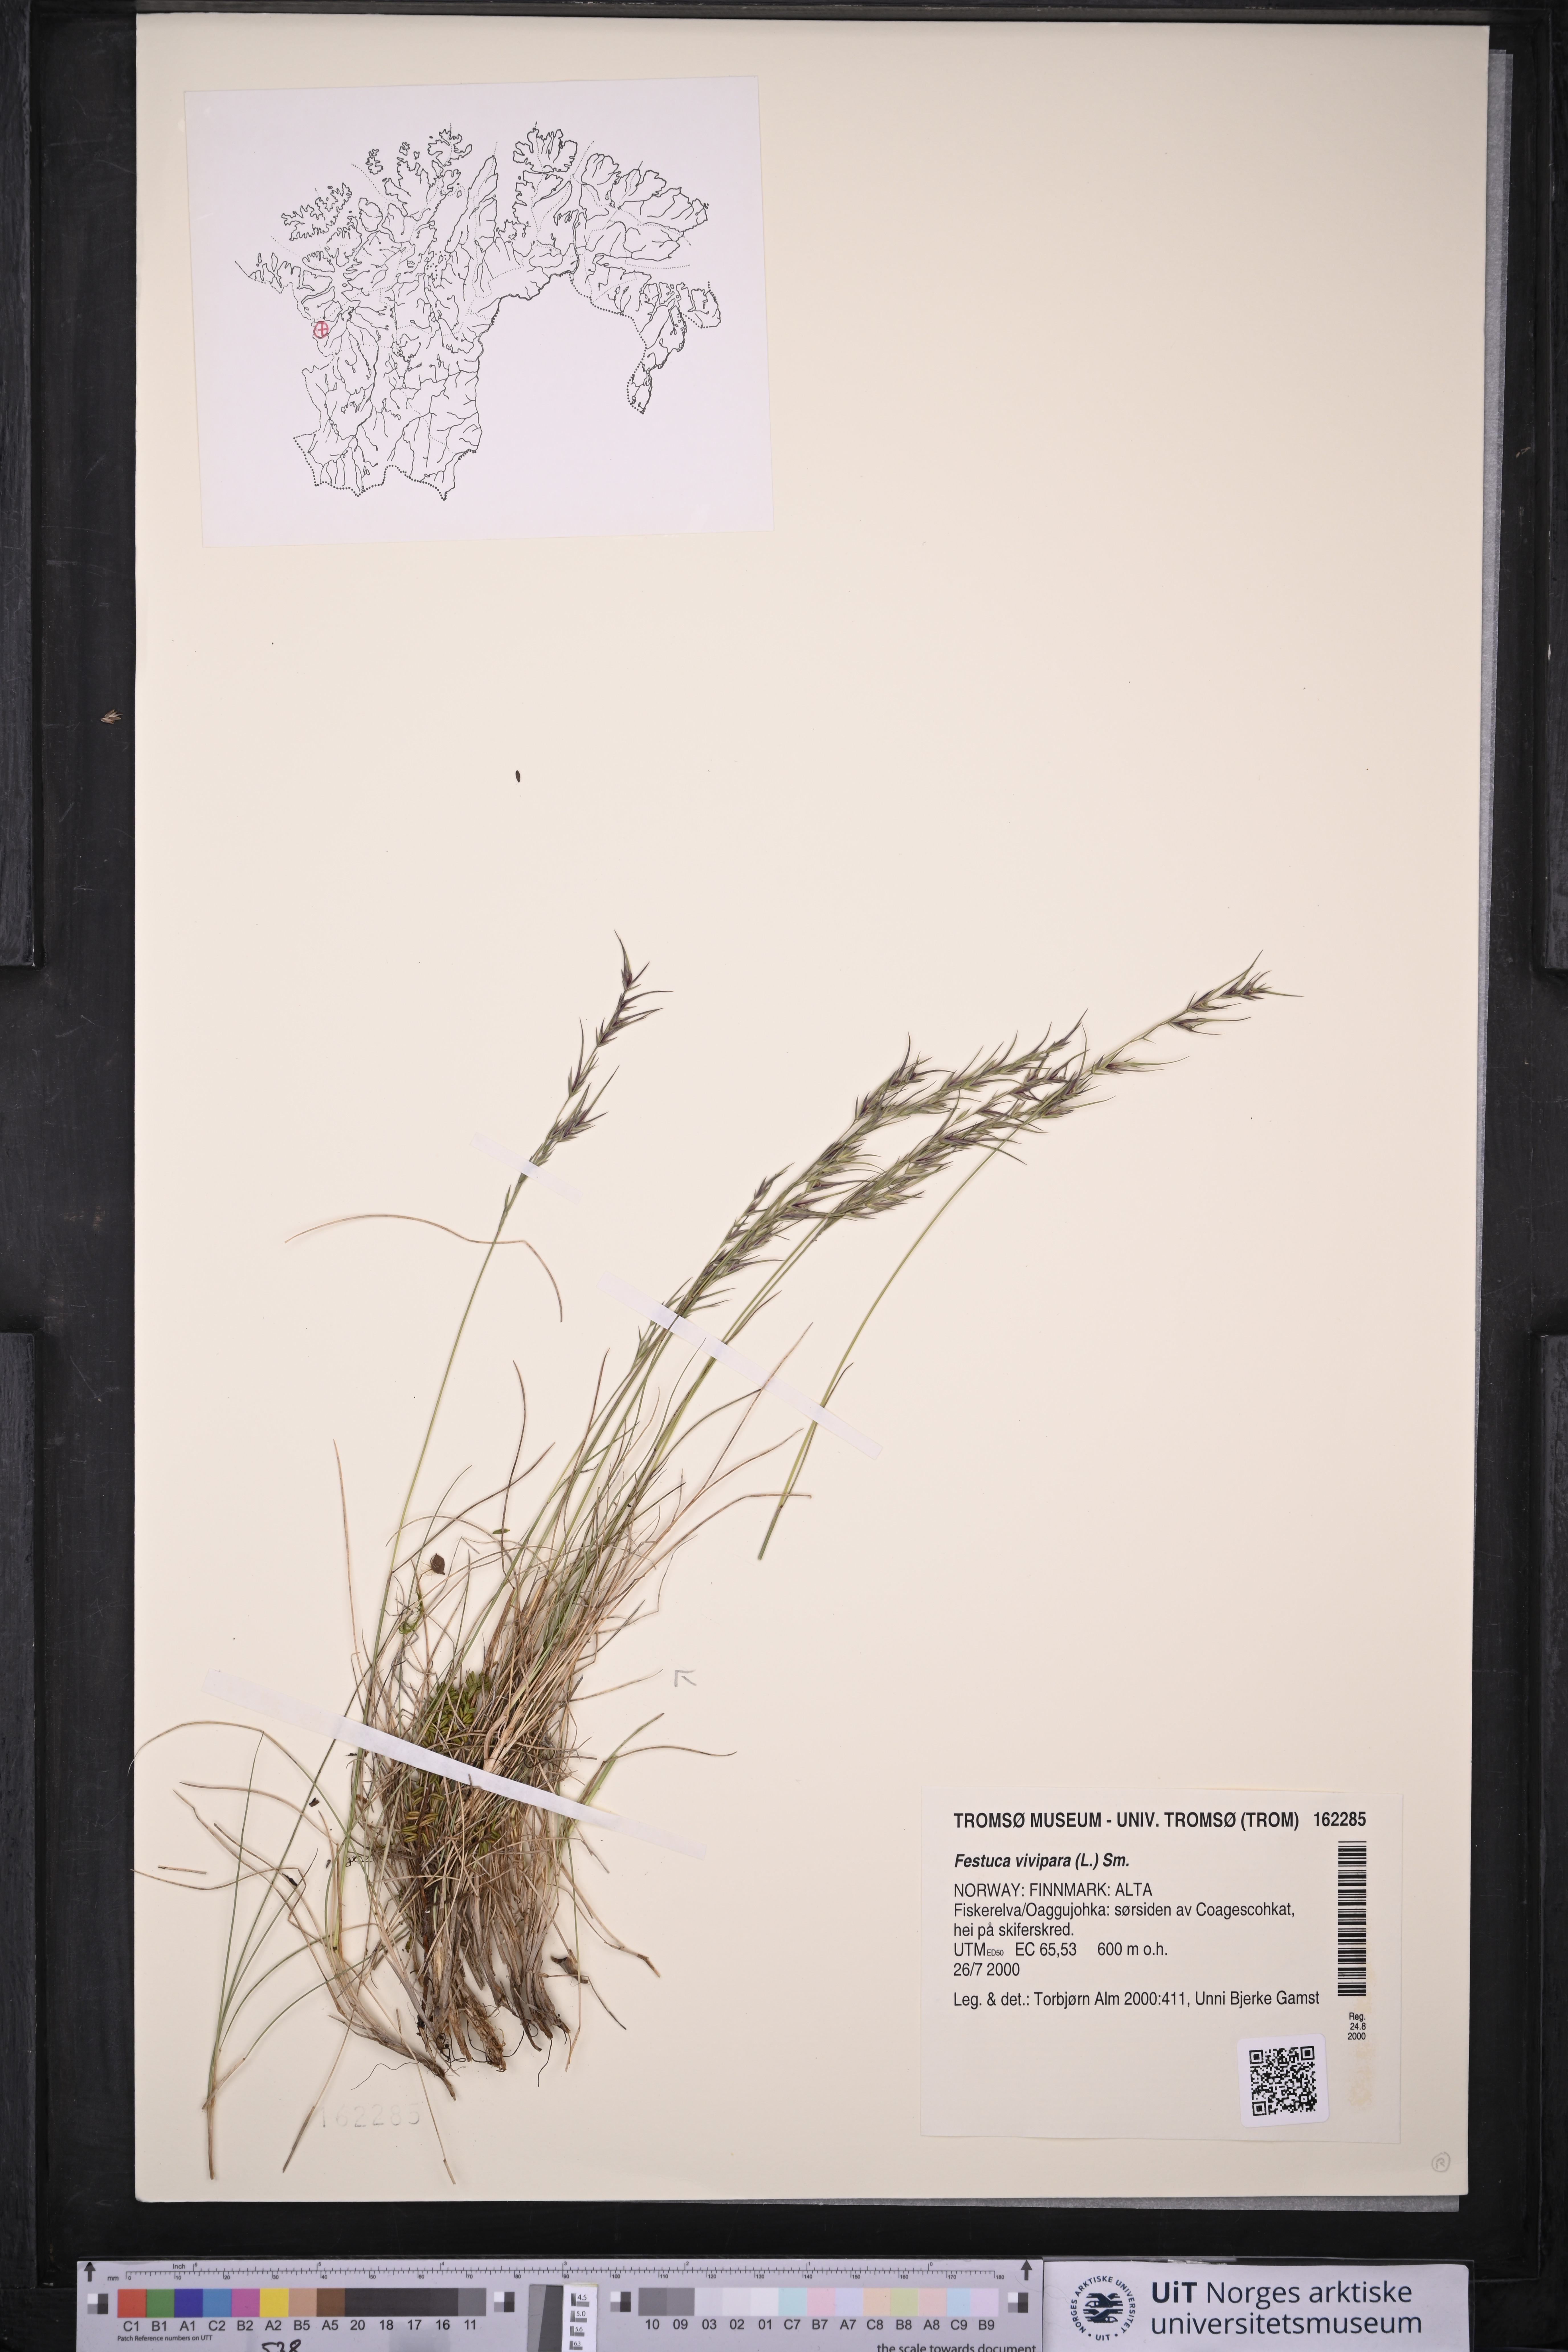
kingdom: Plantae
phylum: Tracheophyta
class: Liliopsida
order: Poales
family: Poaceae
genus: Festuca
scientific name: Festuca vivipara
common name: Viviparous sheep's-fescue
